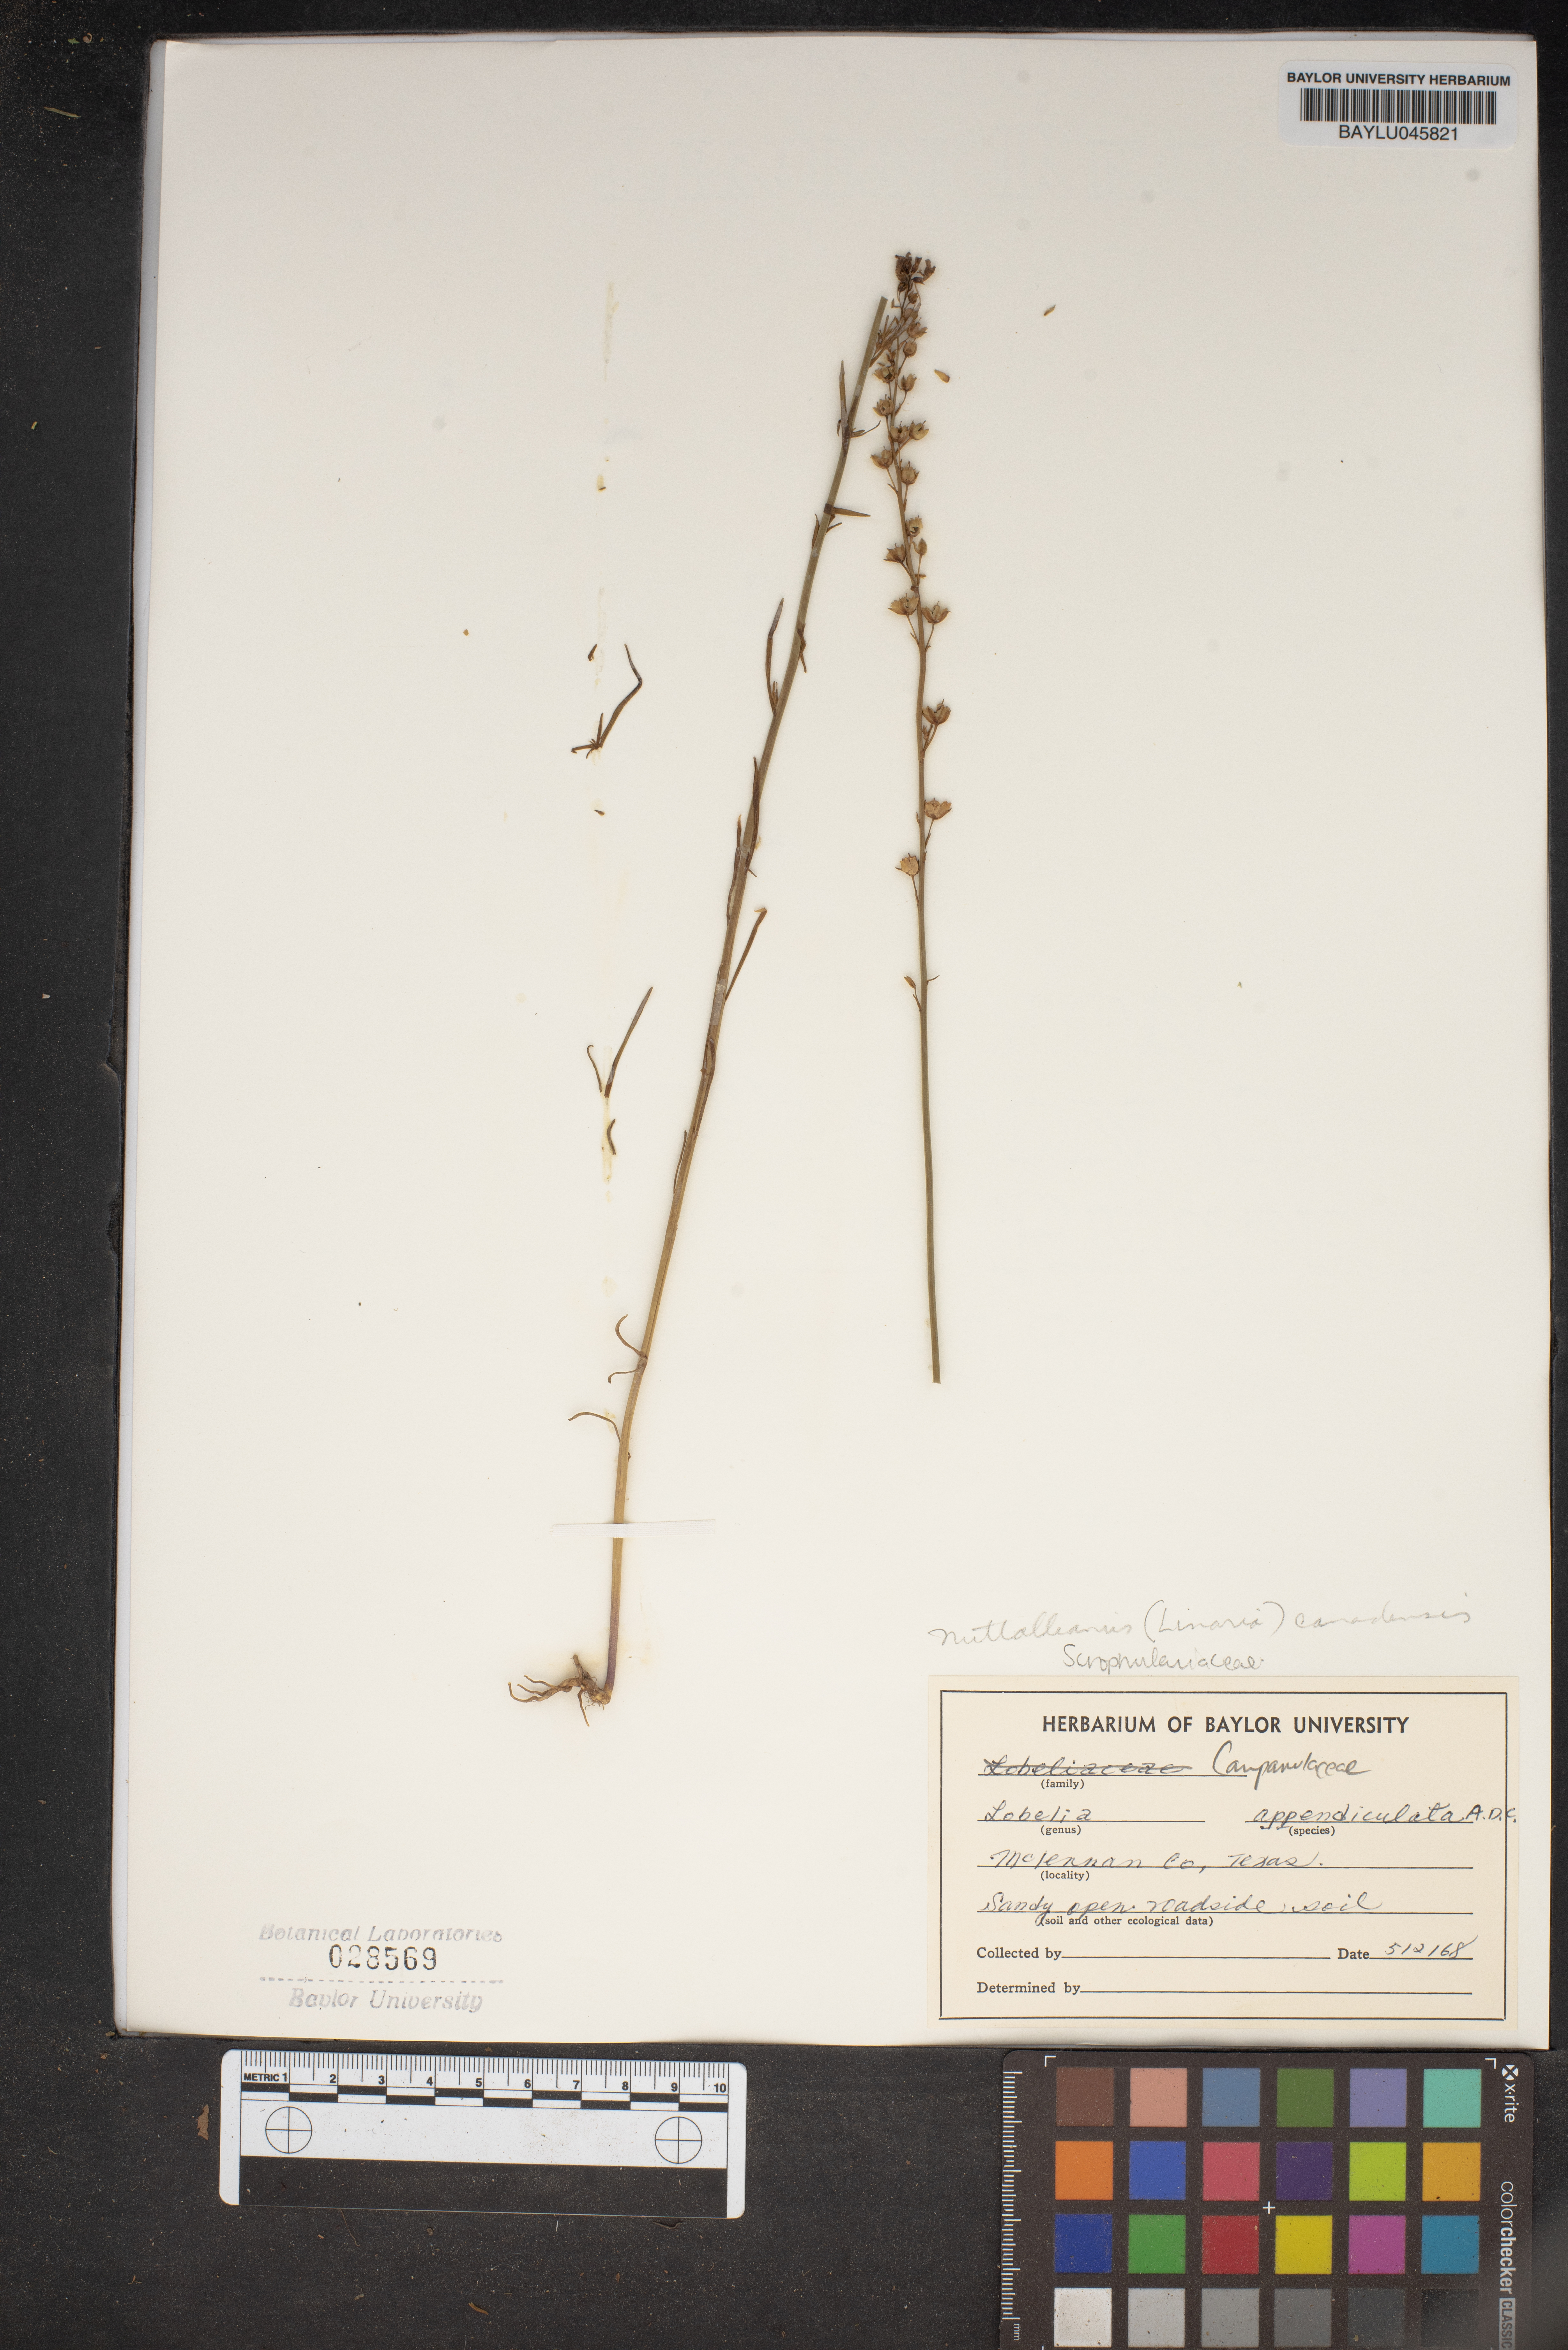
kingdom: Plantae
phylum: Tracheophyta
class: Magnoliopsida
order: Asterales
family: Campanulaceae
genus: Lobelia
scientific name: Lobelia appendiculata
